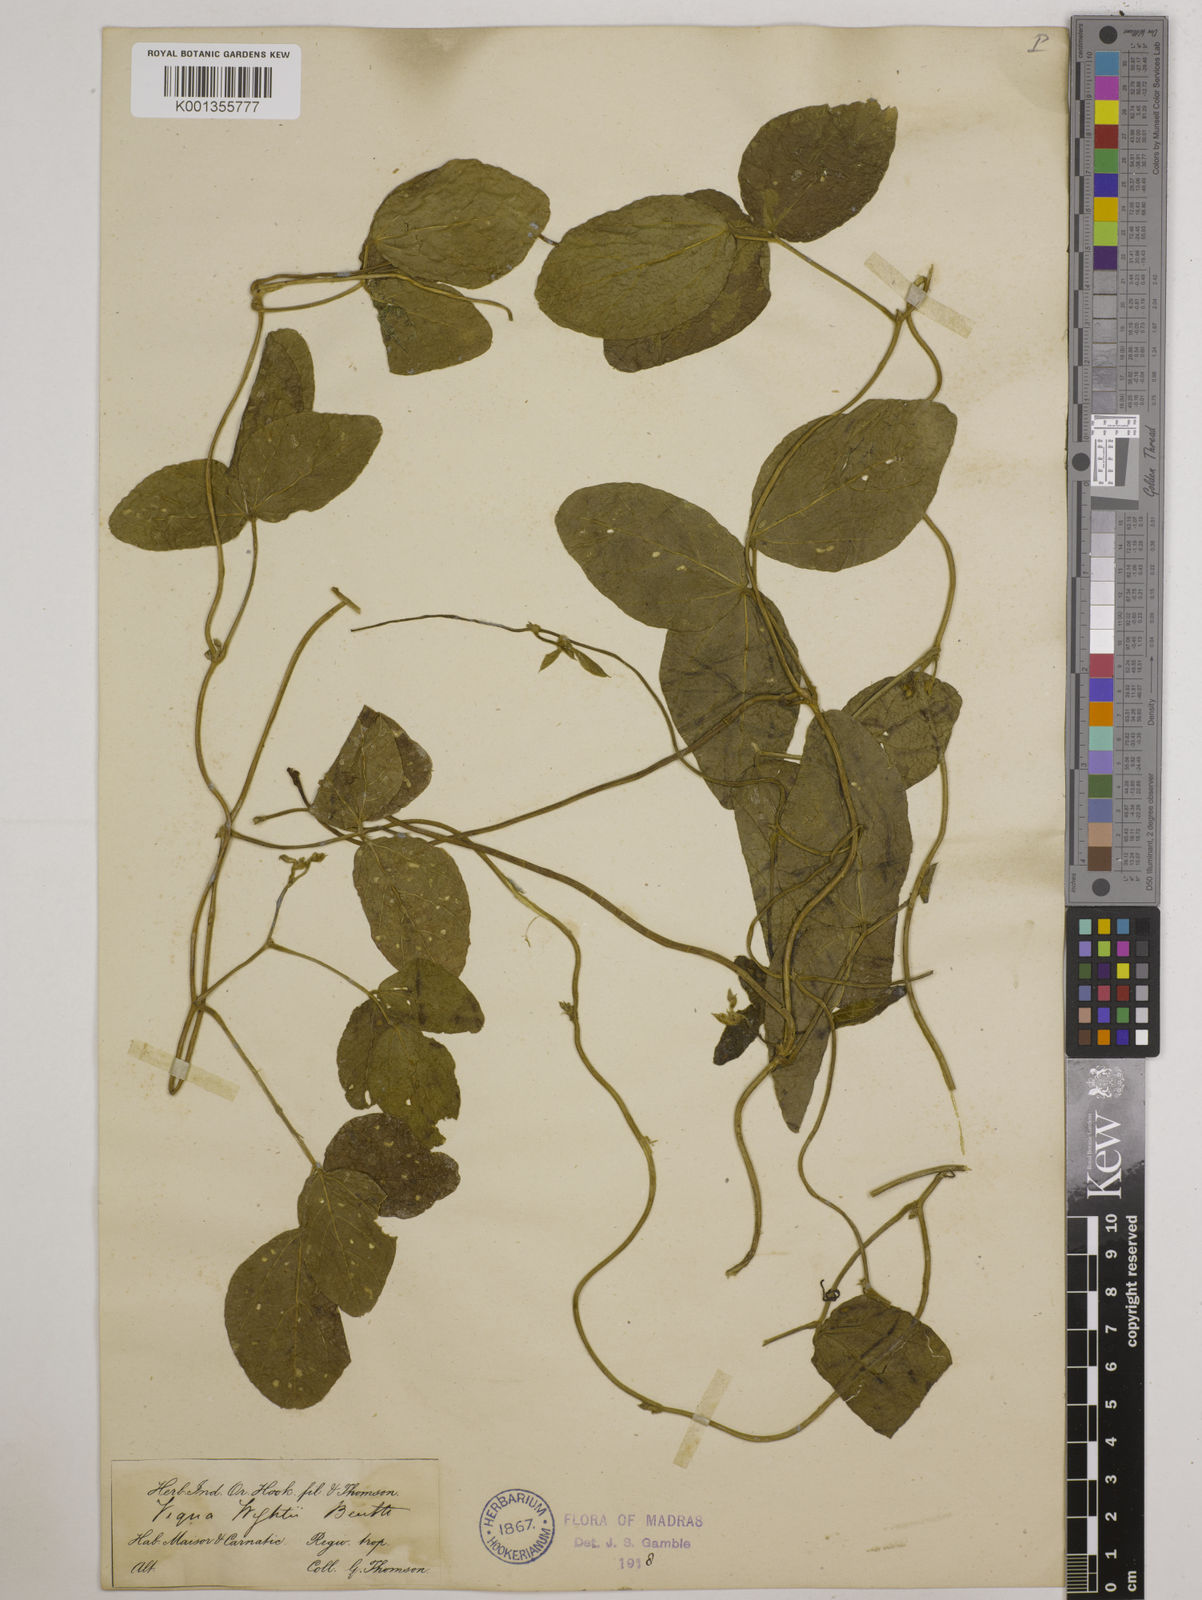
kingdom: Plantae
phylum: Tracheophyta
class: Magnoliopsida
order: Fabales
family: Fabaceae
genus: Vigna
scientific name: Vigna vexillata
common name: Zombi pea
